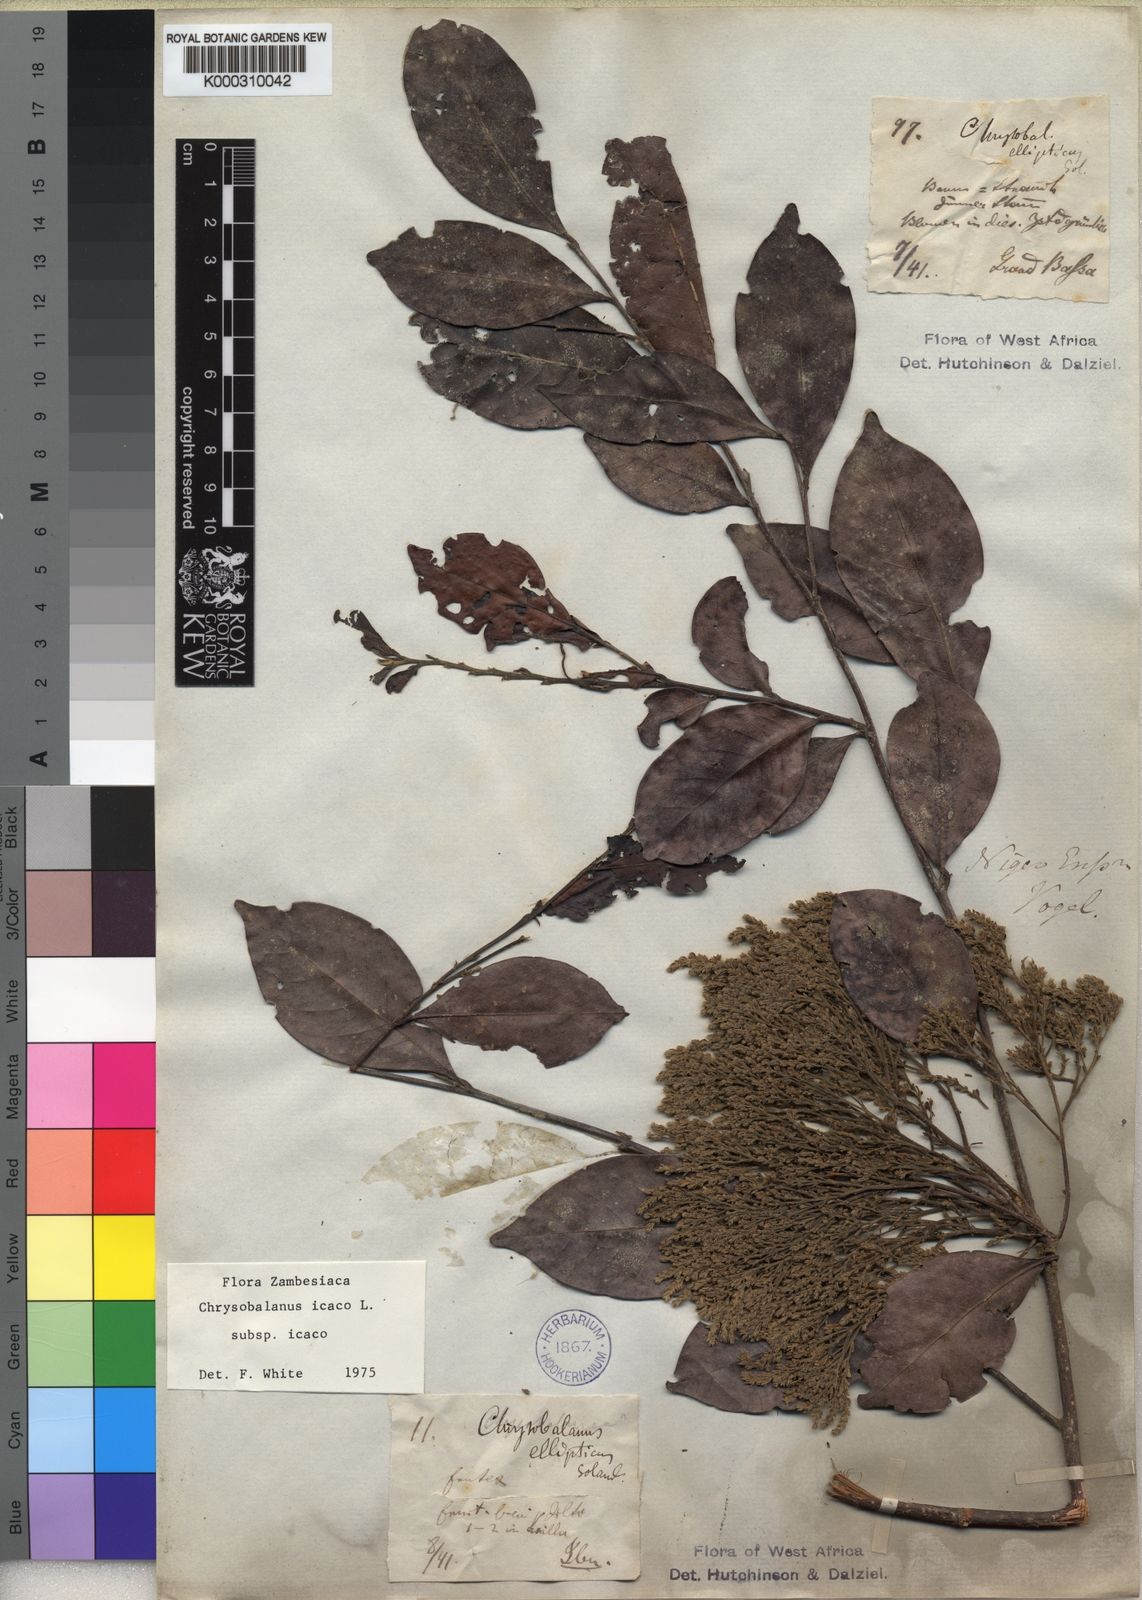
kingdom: Plantae
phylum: Tracheophyta
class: Magnoliopsida
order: Malpighiales
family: Chrysobalanaceae
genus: Chrysobalanus
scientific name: Chrysobalanus icaco
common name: Coco plum
